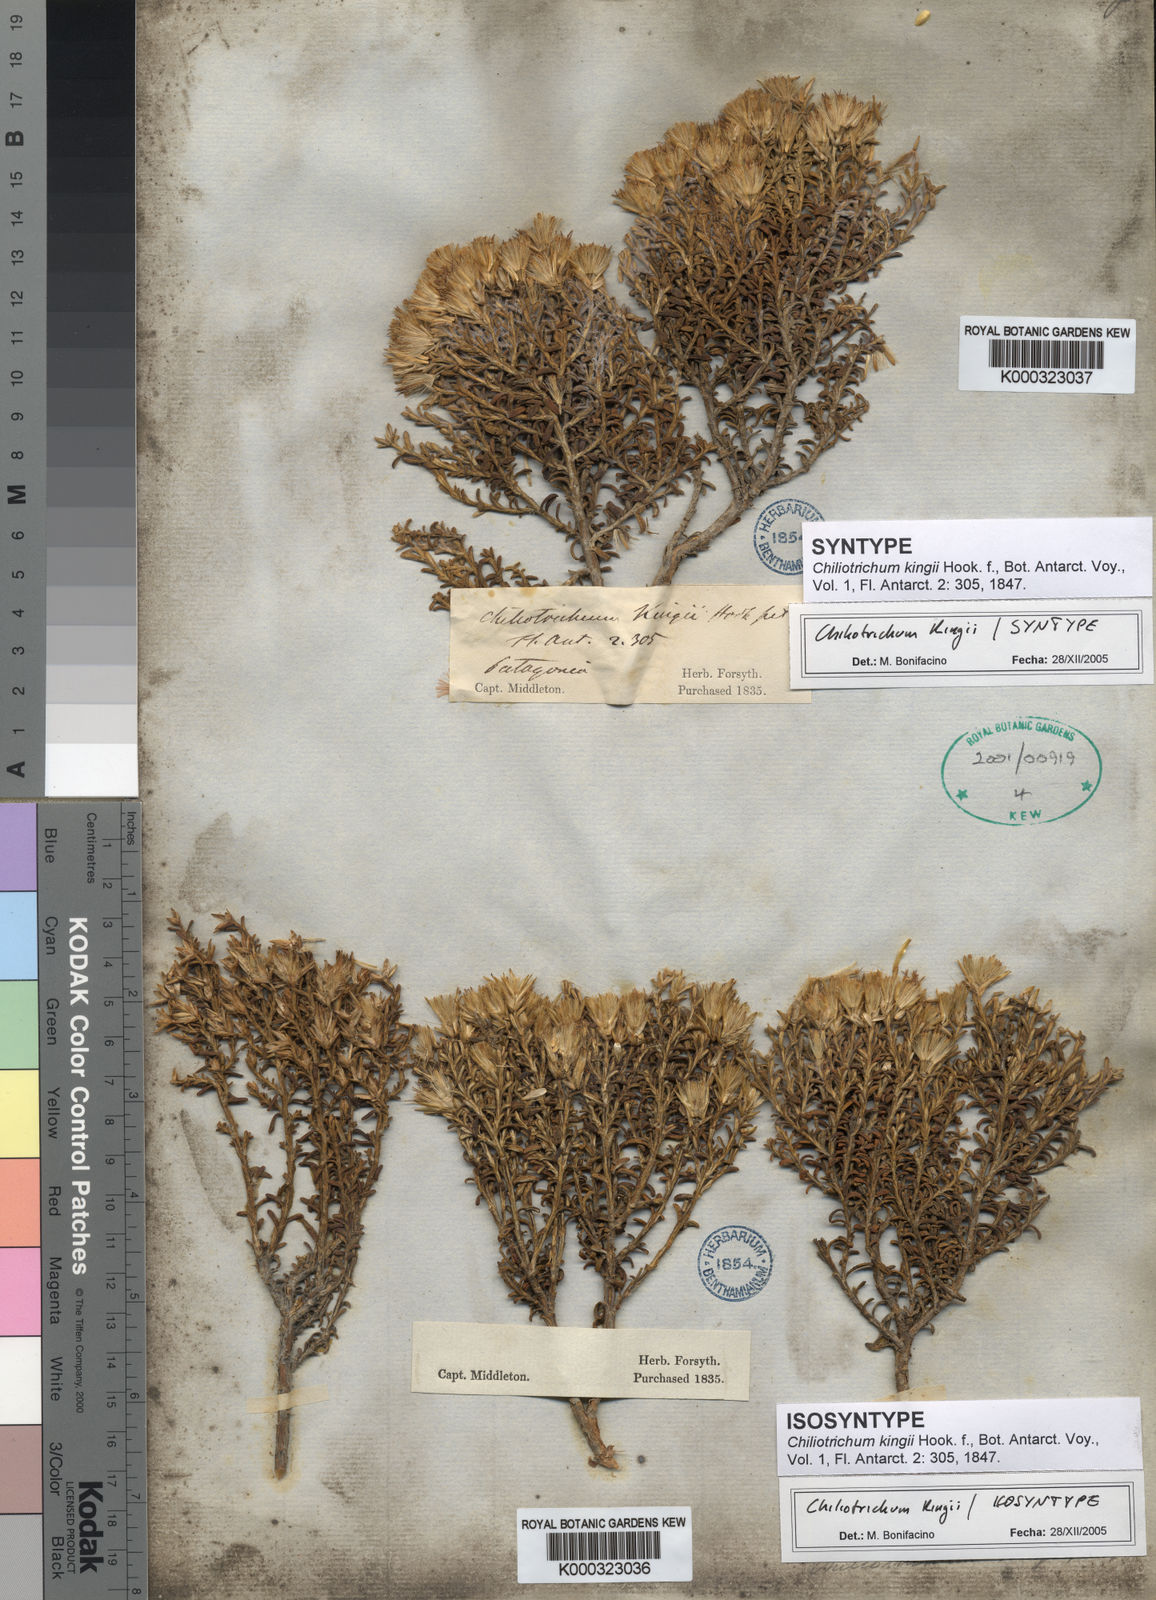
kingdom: Plantae
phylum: Tracheophyta
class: Magnoliopsida
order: Asterales
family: Asteraceae
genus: Nardophyllum
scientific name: Nardophyllum bryoides
